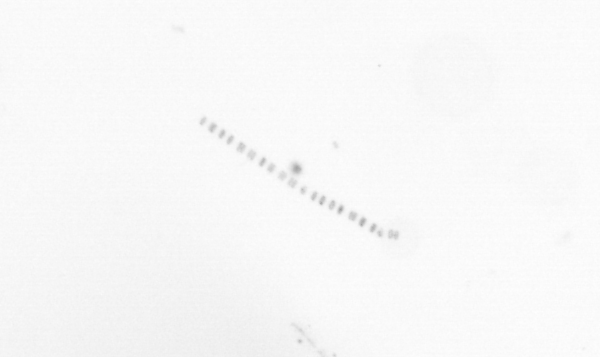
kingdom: Chromista
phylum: Ochrophyta
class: Bacillariophyceae
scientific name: Bacillariophyceae
